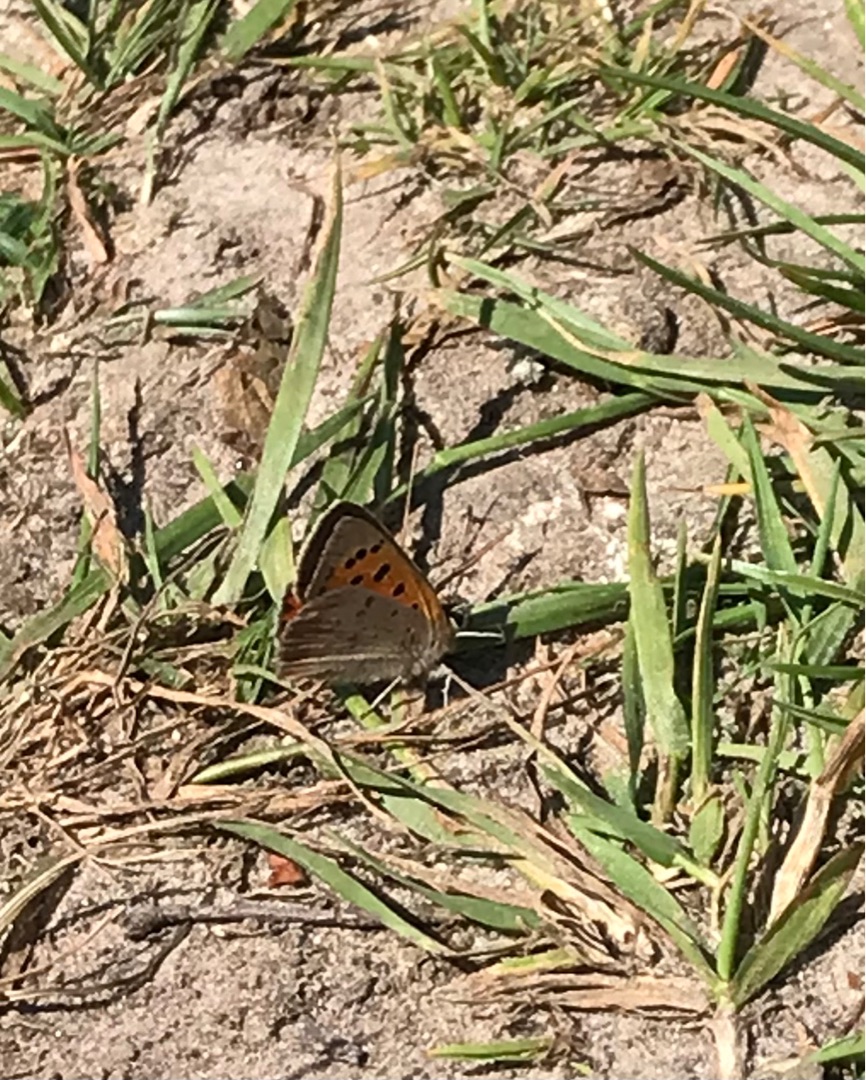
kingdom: Animalia
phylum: Arthropoda
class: Insecta
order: Lepidoptera
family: Lycaenidae
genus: Lycaena
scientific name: Lycaena phlaeas
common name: Lille ildfugl
